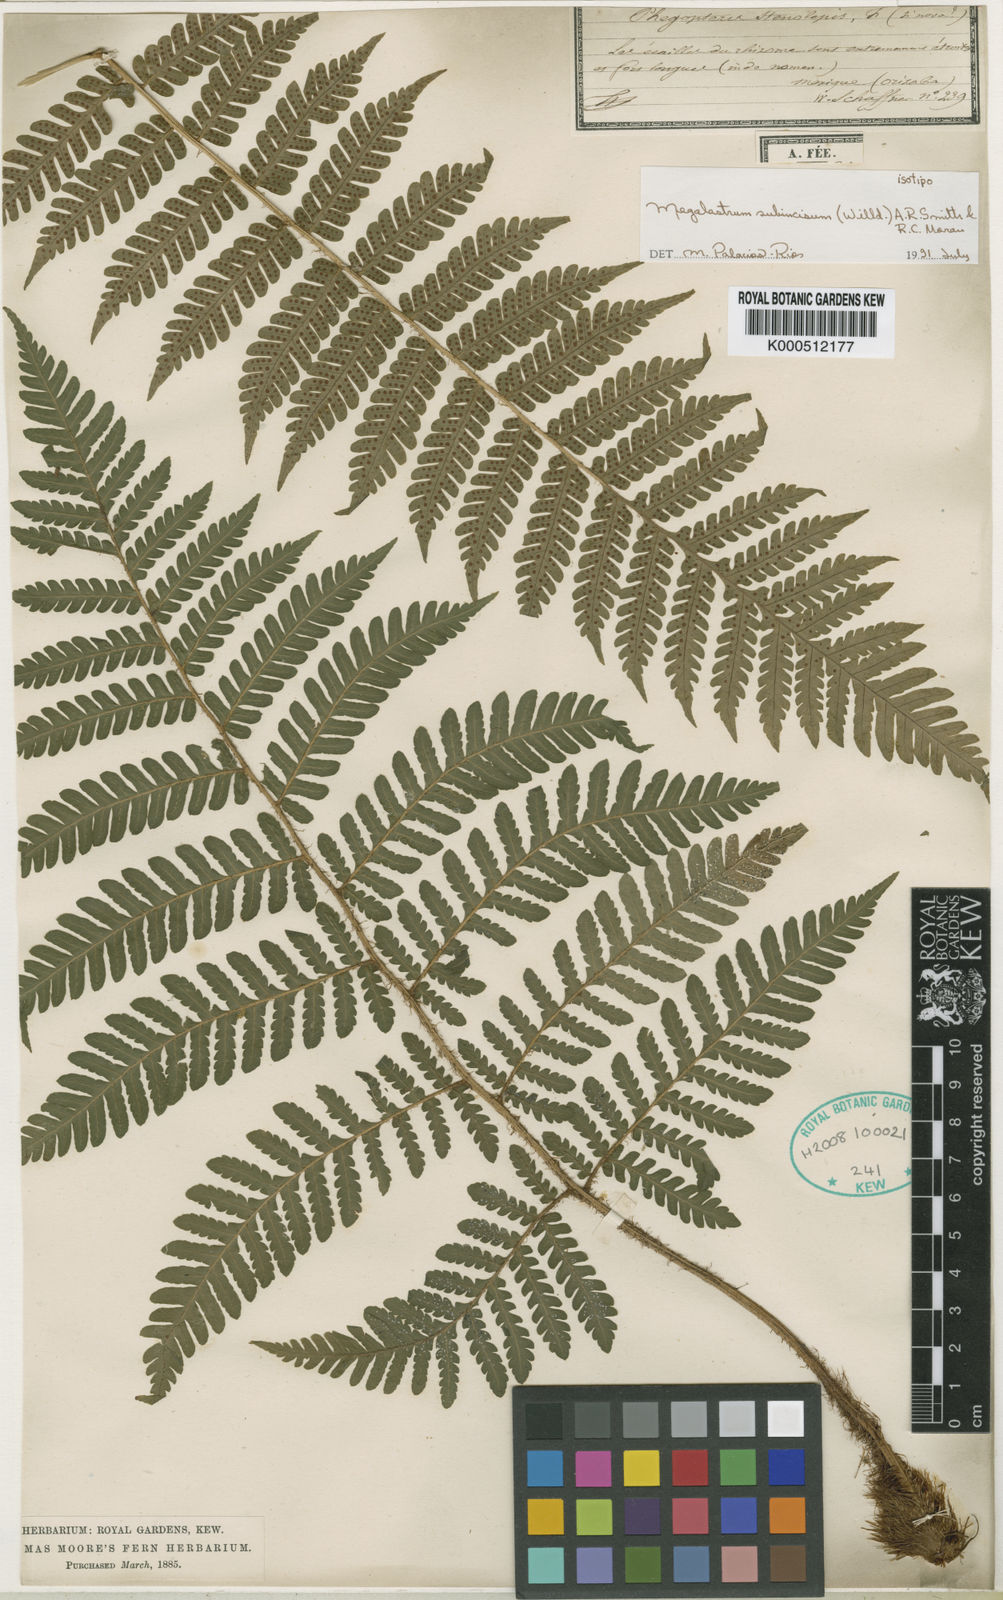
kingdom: Plantae
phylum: Tracheophyta
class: Polypodiopsida
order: Polypodiales
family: Dryopteridaceae
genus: Megalastrum
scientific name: Megalastrum subincisum
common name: Jagleaf junglefern
